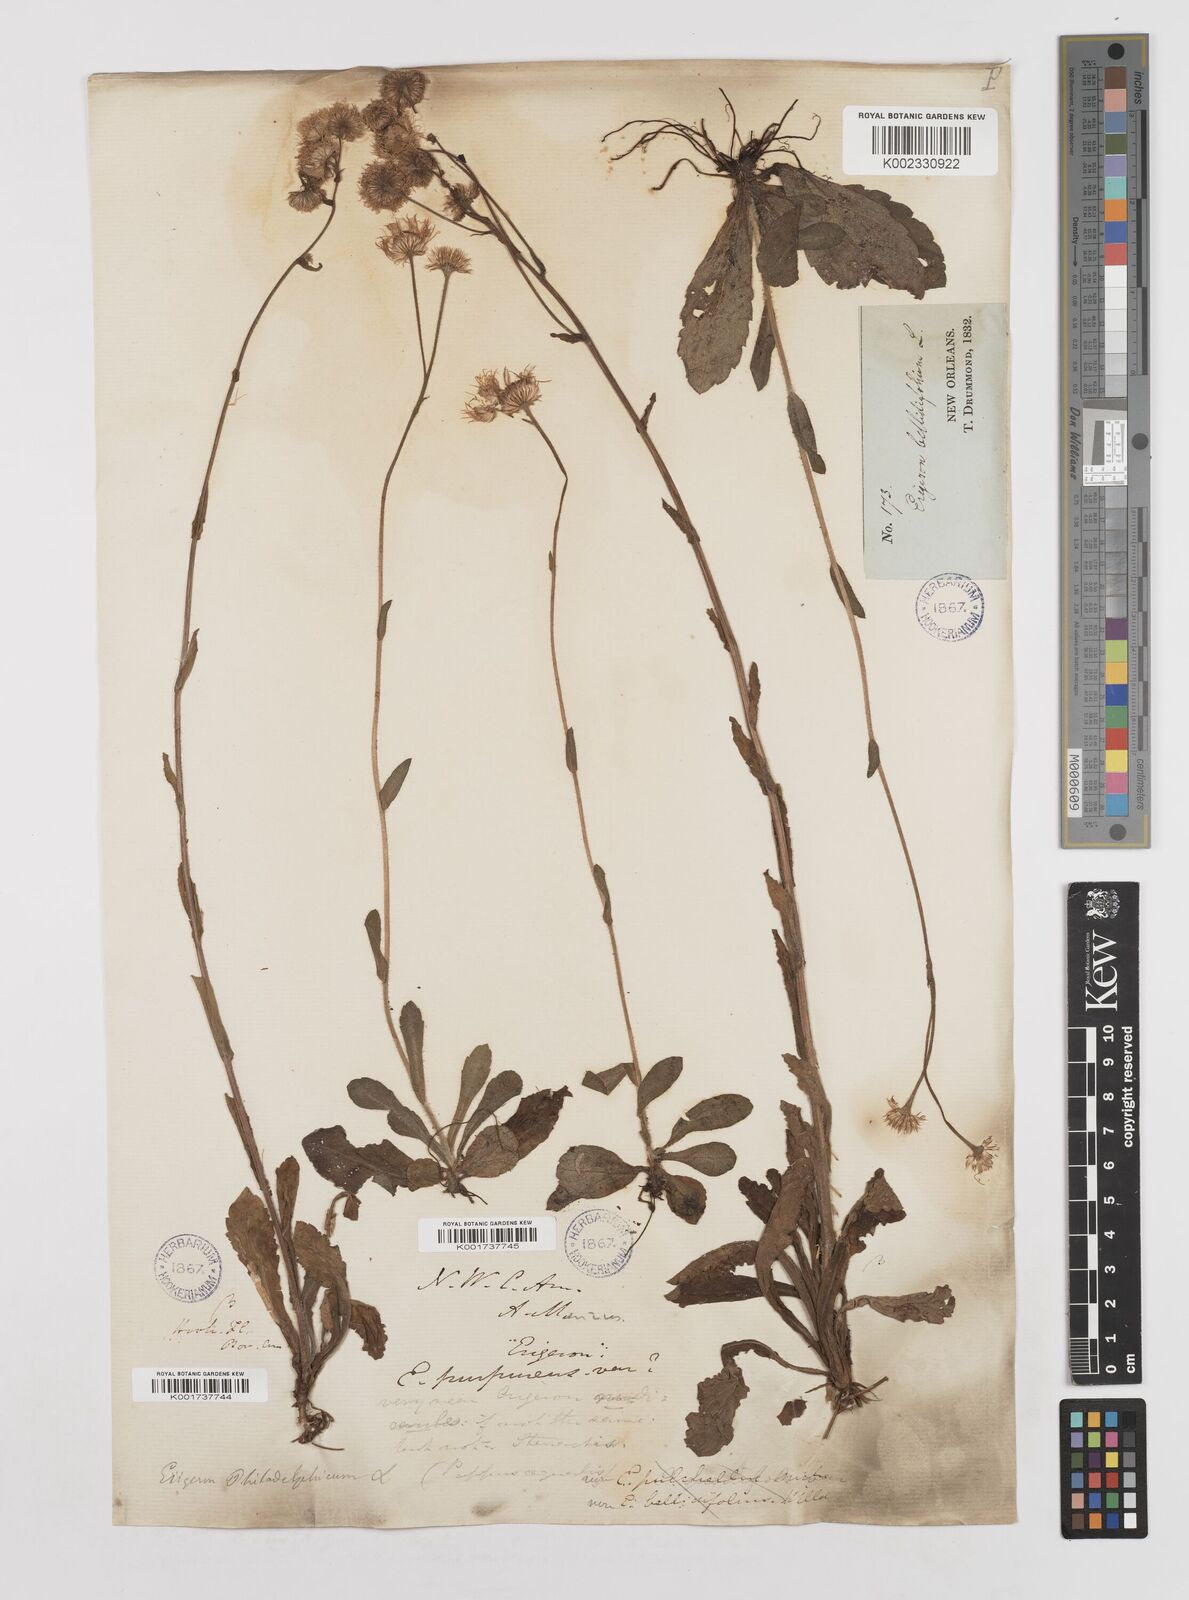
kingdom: Plantae
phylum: Tracheophyta
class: Magnoliopsida
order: Asterales
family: Asteraceae
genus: Erigeron
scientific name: Erigeron philadelphicus
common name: Robin's-plantain
